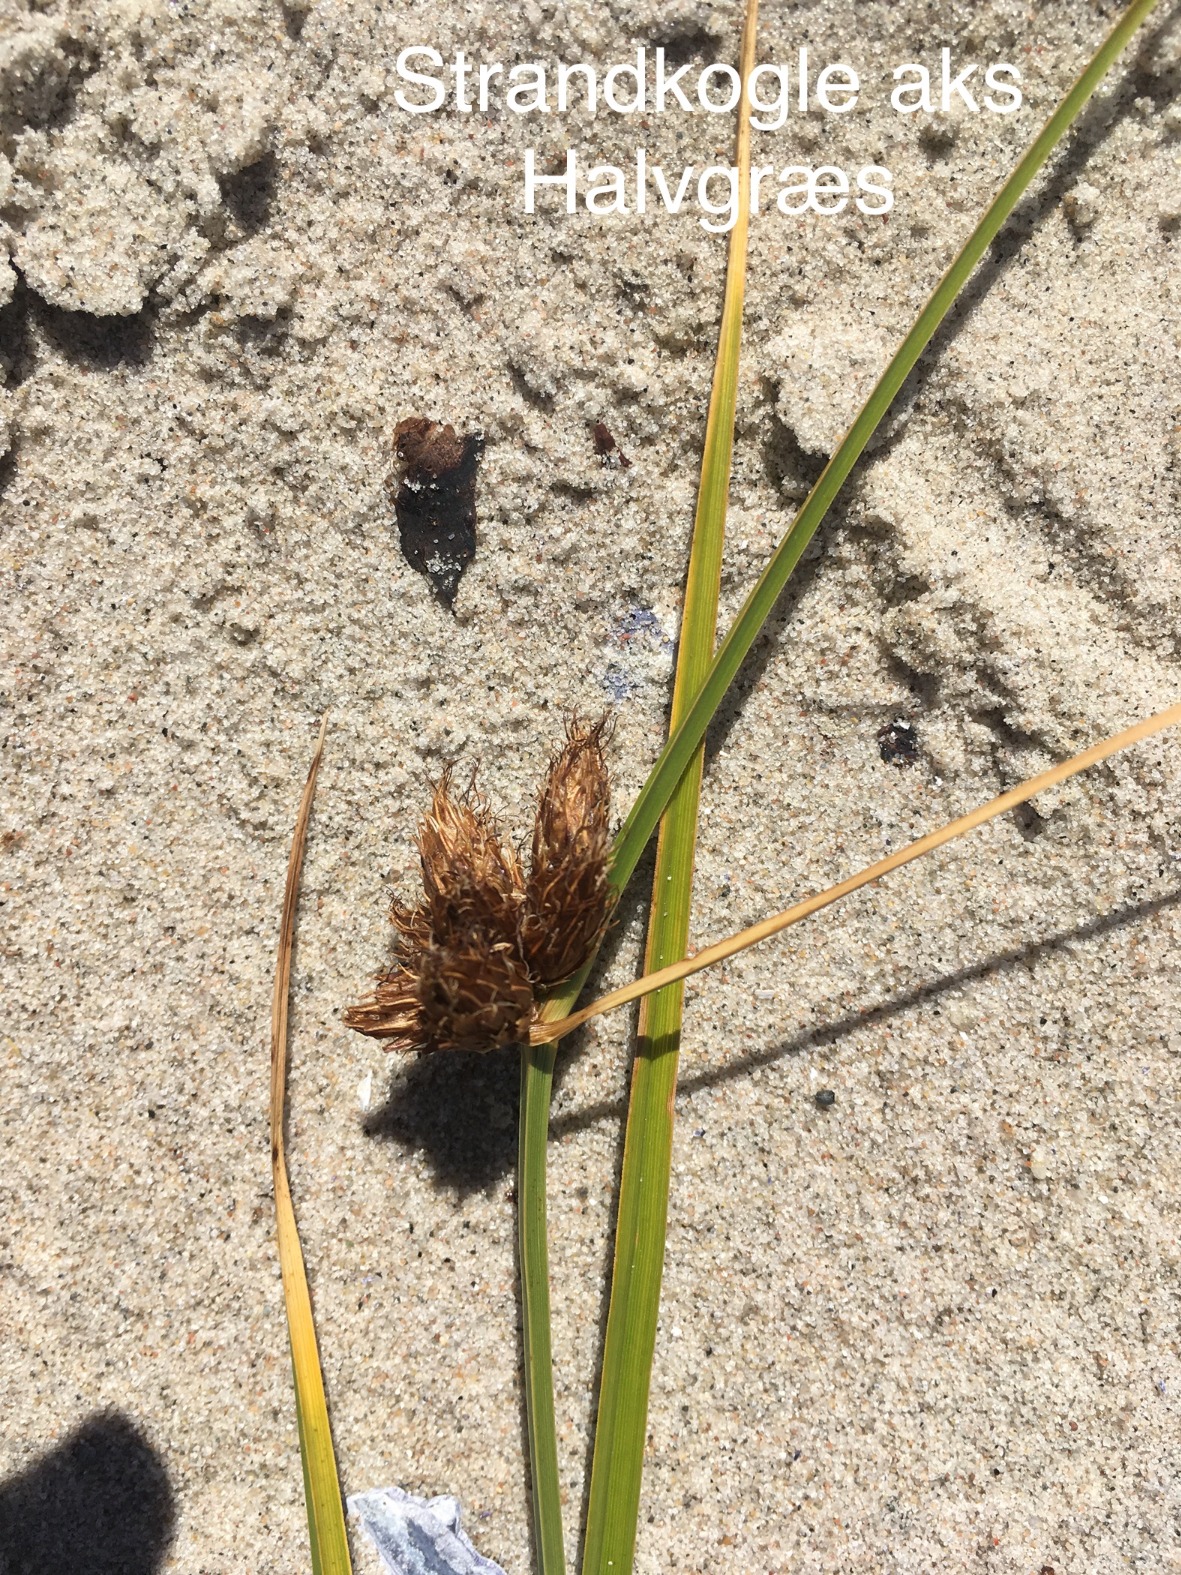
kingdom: Plantae
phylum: Tracheophyta
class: Liliopsida
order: Poales
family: Cyperaceae
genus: Bolboschoenus
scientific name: Bolboschoenus maritimus
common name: Strand-kogleaks
